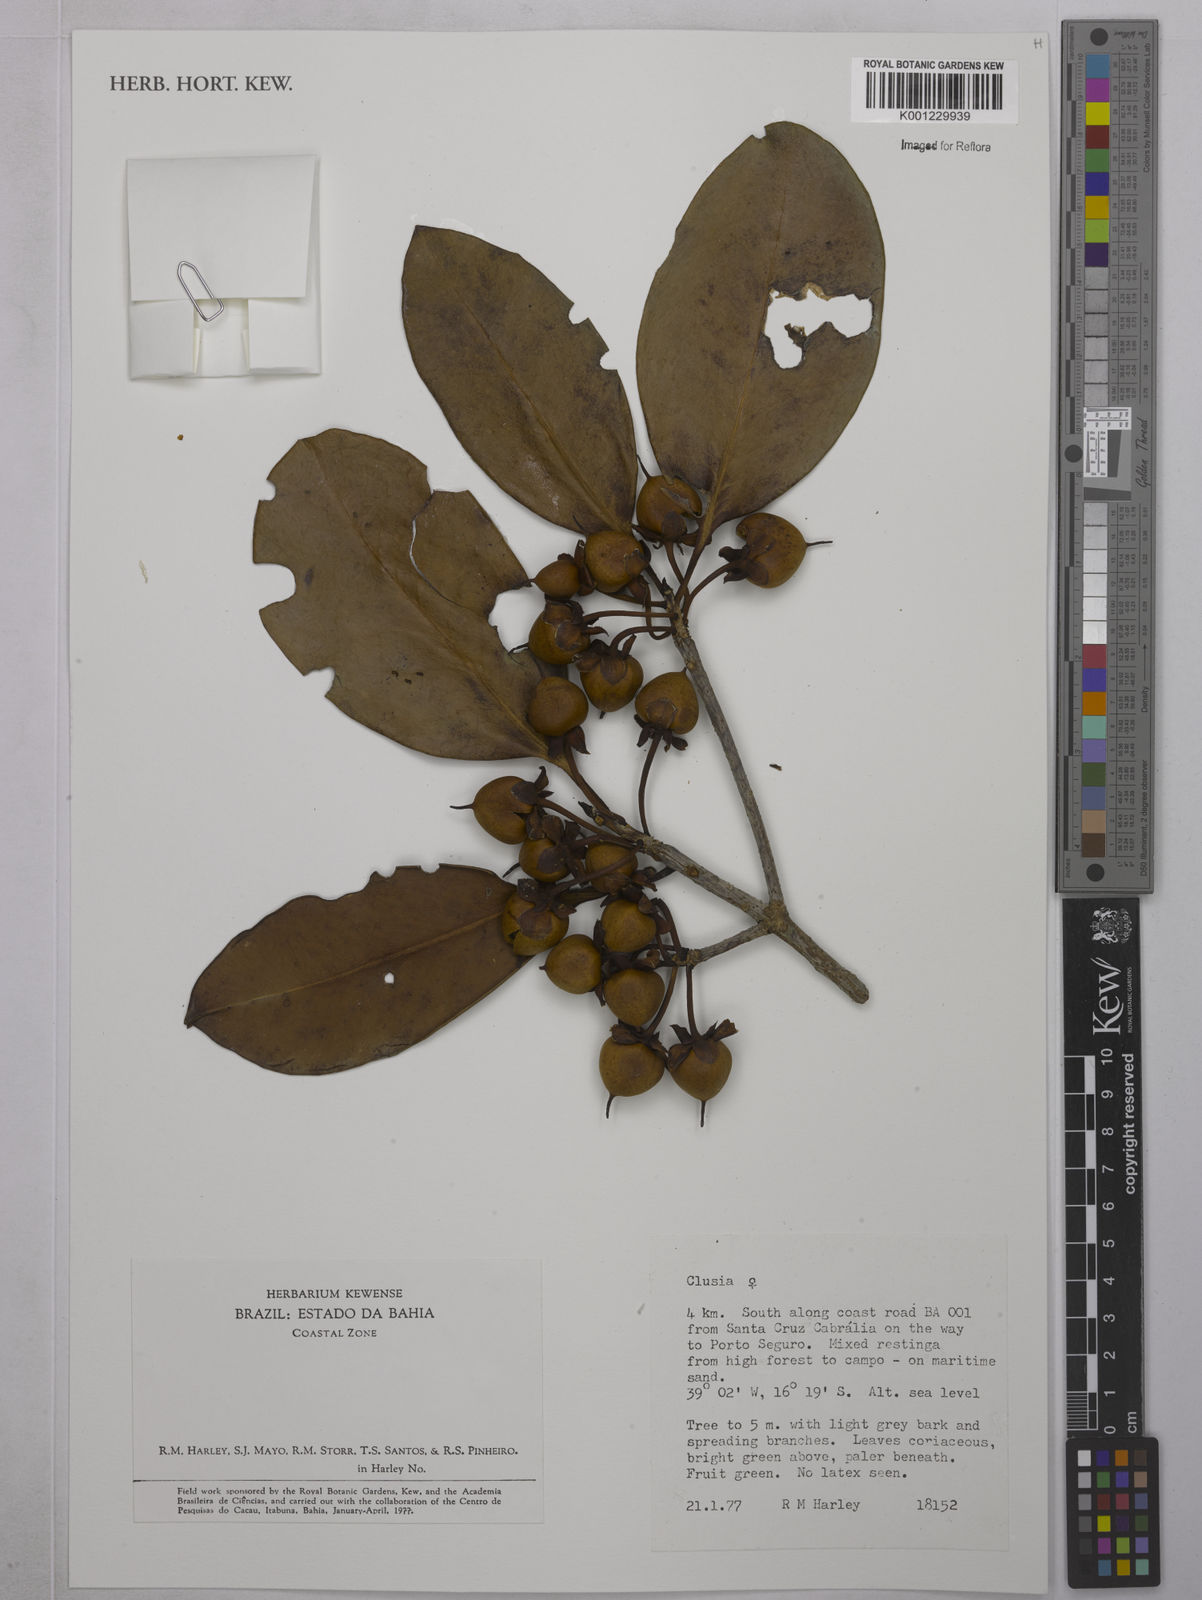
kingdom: Plantae
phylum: Tracheophyta
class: Magnoliopsida
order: Malpighiales
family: Clusiaceae
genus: Clusia
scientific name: Clusia
